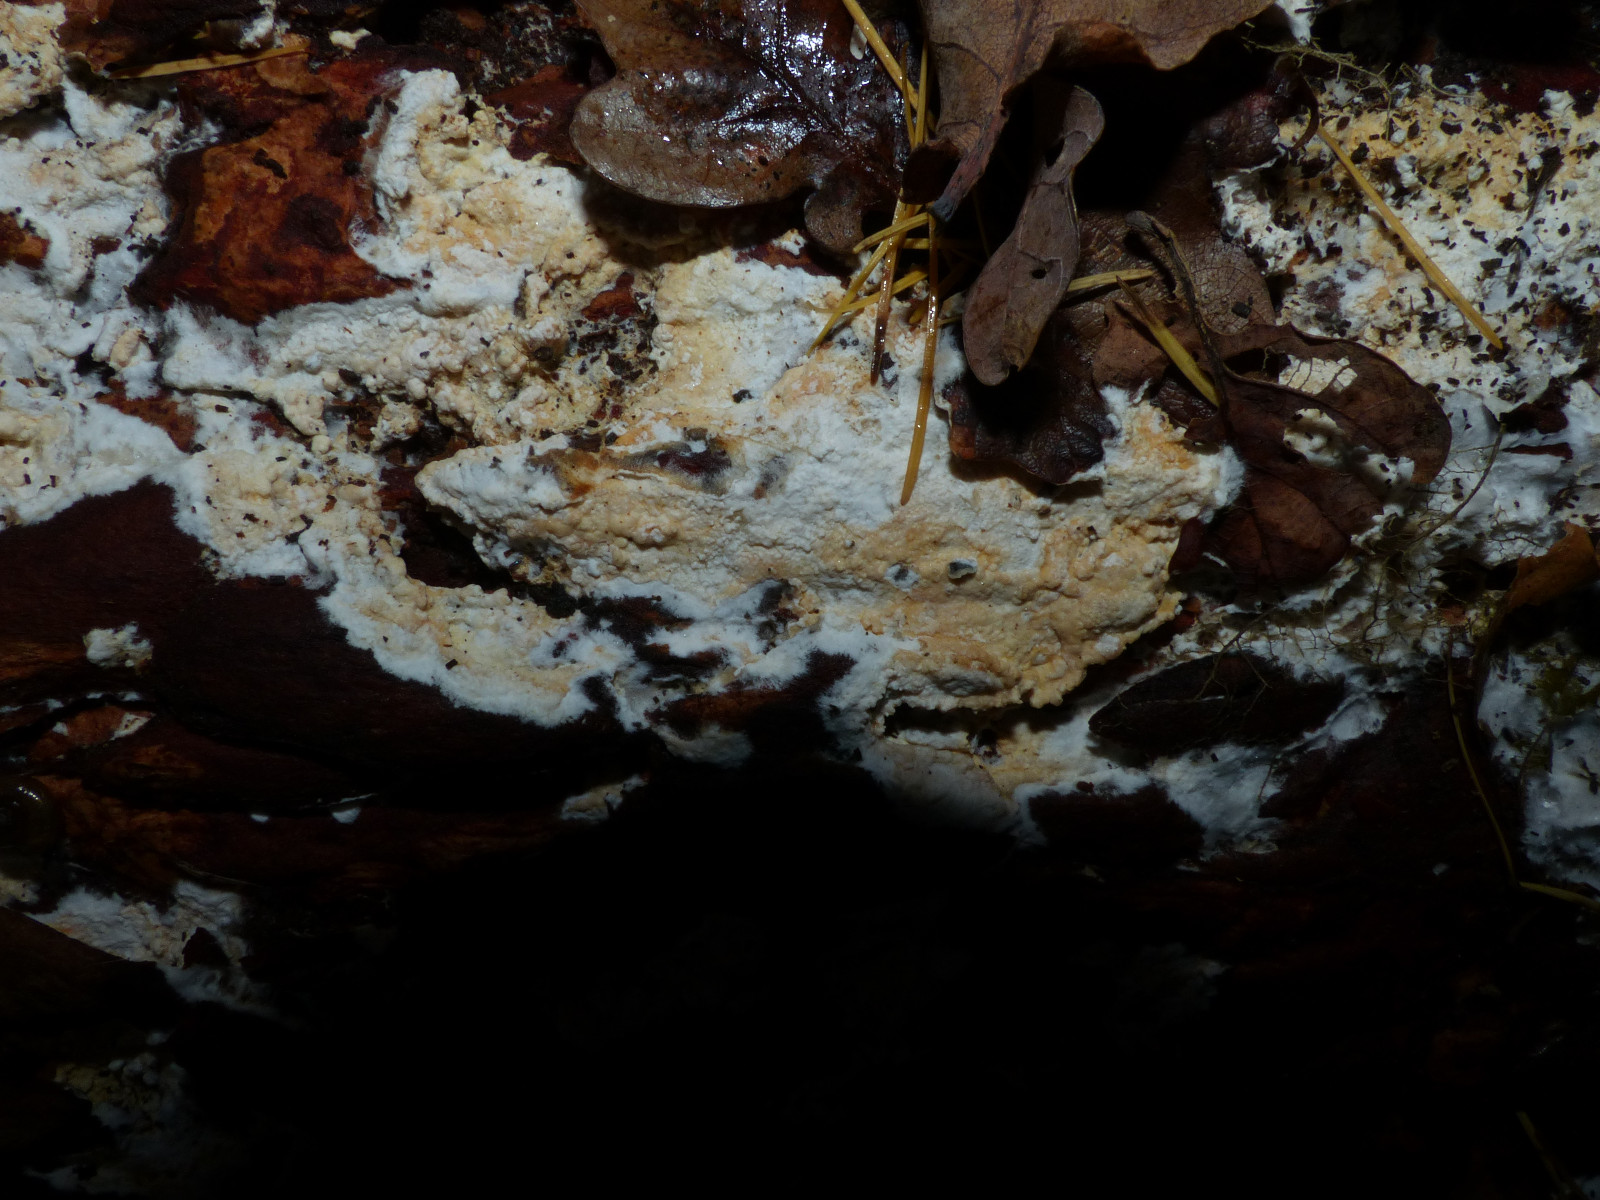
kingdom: Fungi
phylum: Basidiomycota
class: Agaricomycetes
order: Atheliales
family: Atheliaceae
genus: Leptosporomyces
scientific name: Leptosporomyces fuscostratus
